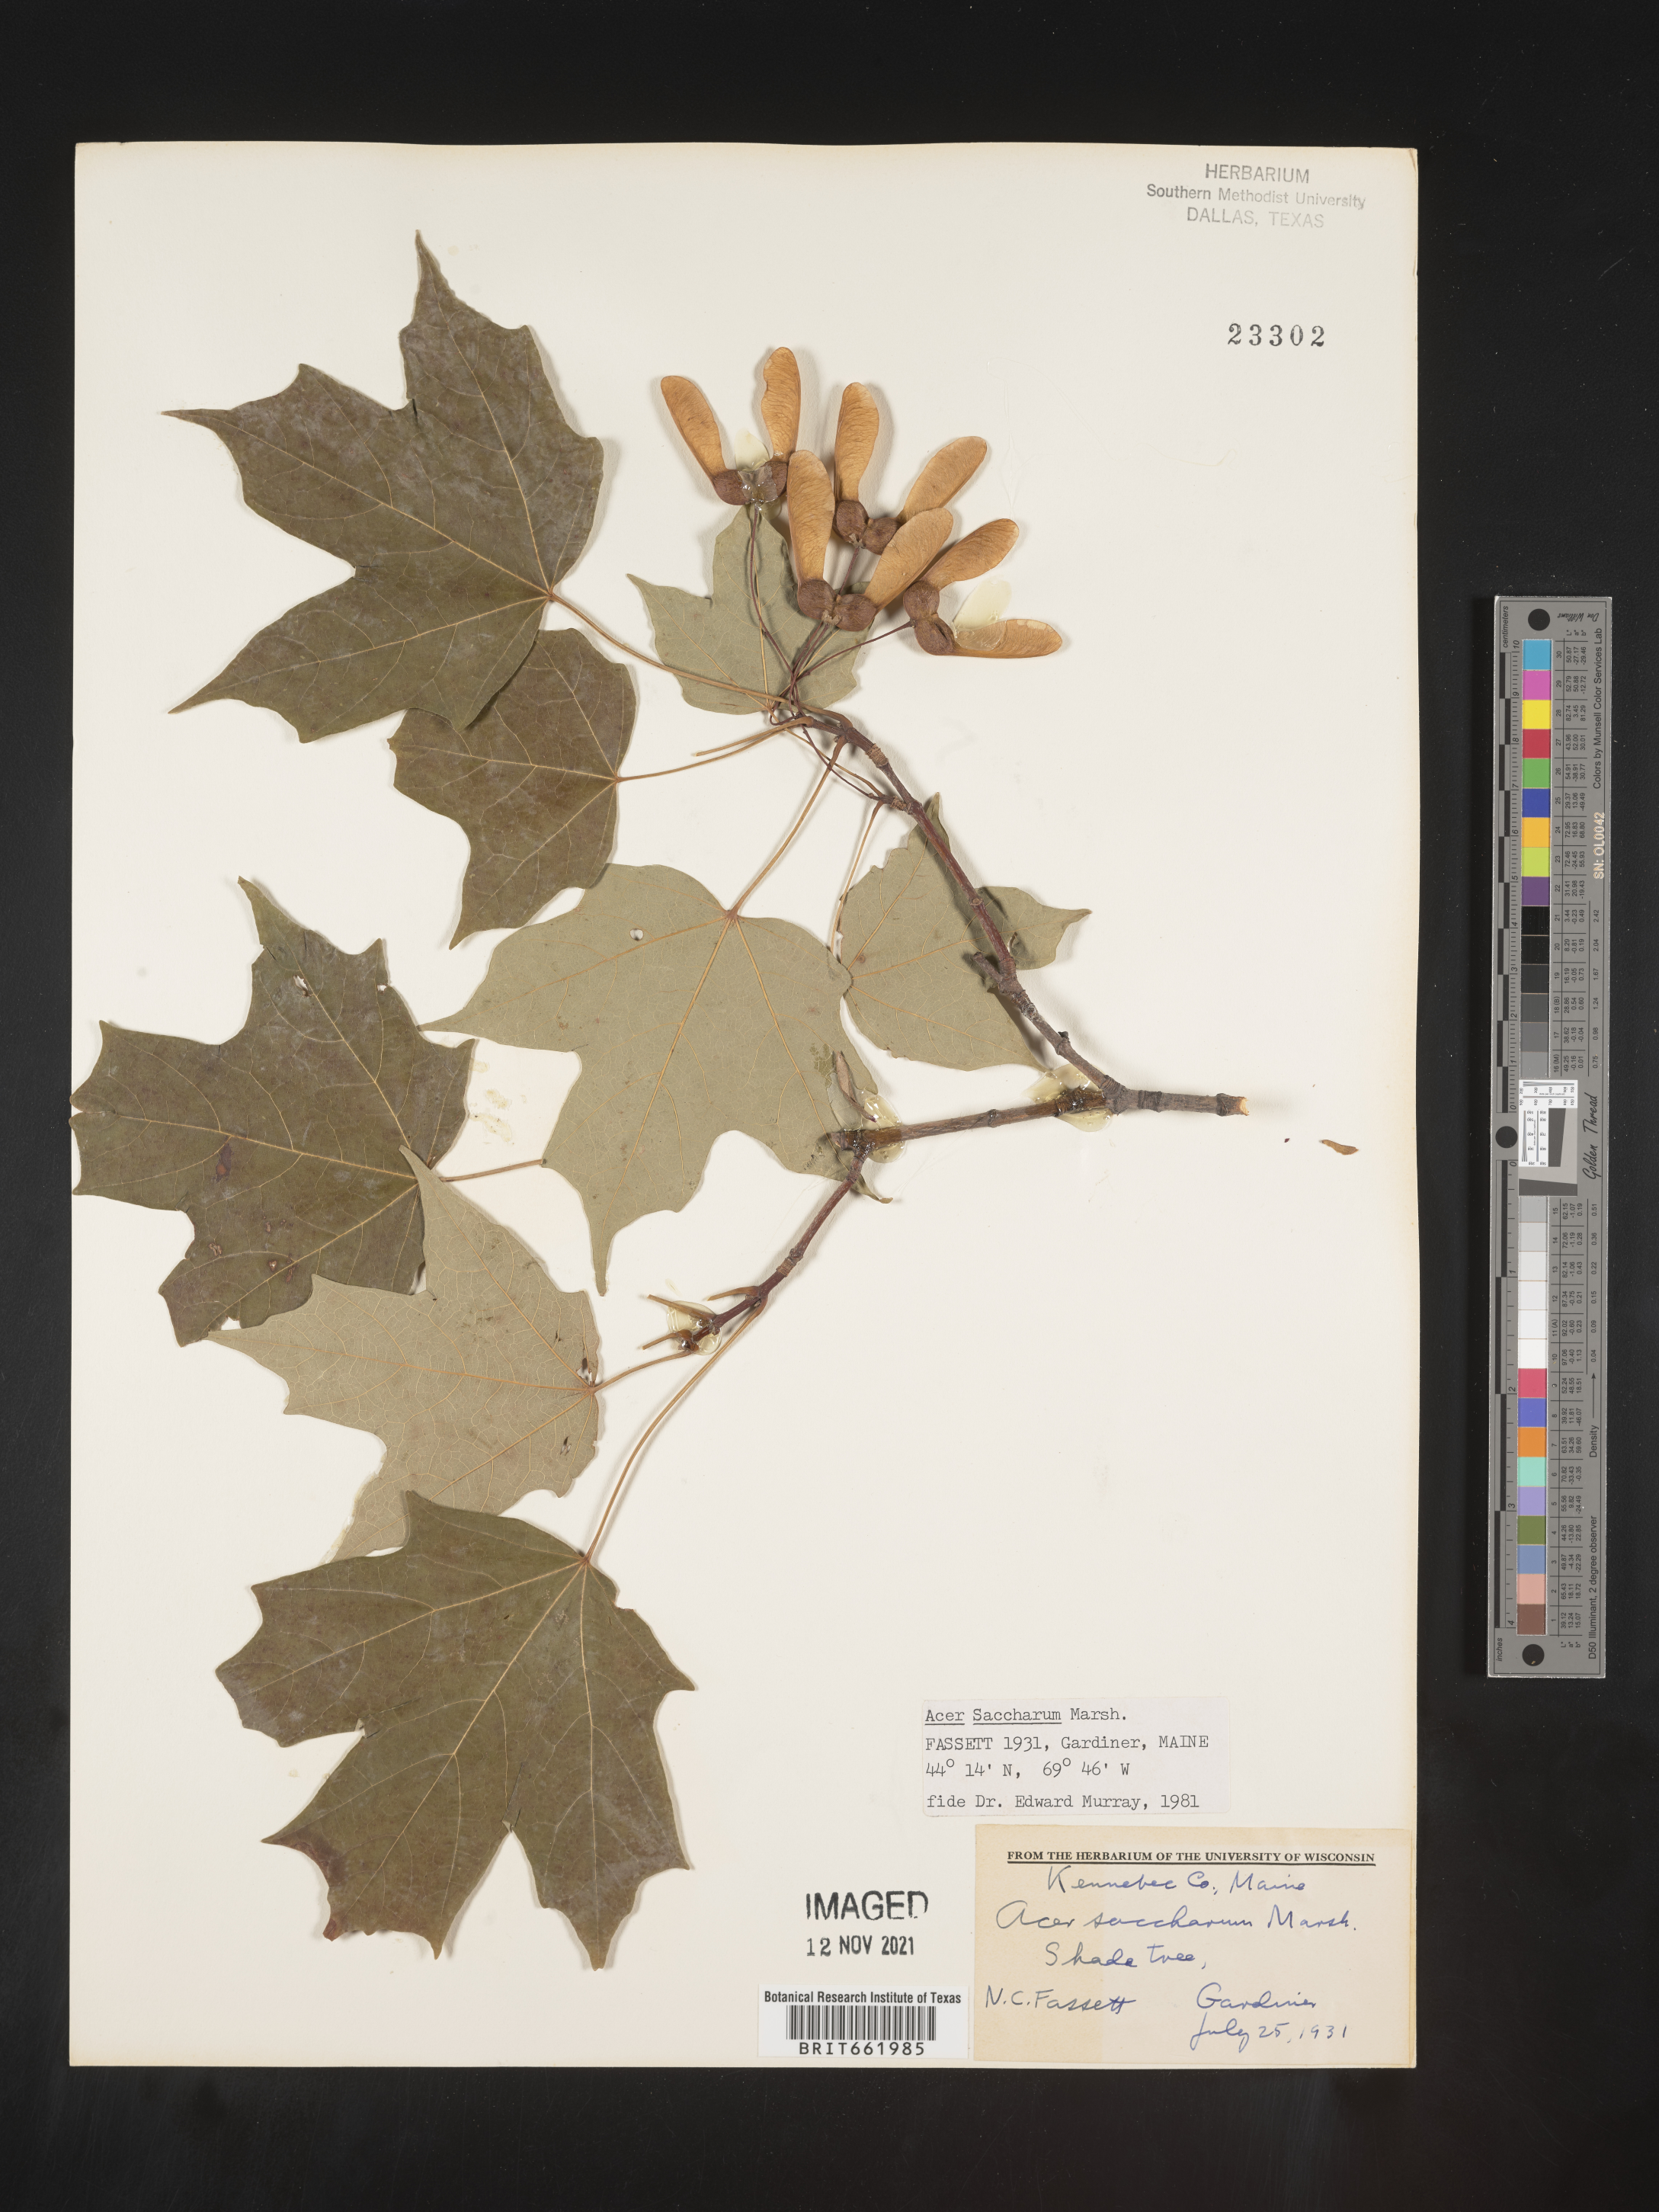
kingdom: Plantae
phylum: Tracheophyta
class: Magnoliopsida
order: Sapindales
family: Sapindaceae
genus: Acer
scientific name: Acer saccharum
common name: Sugar maple
